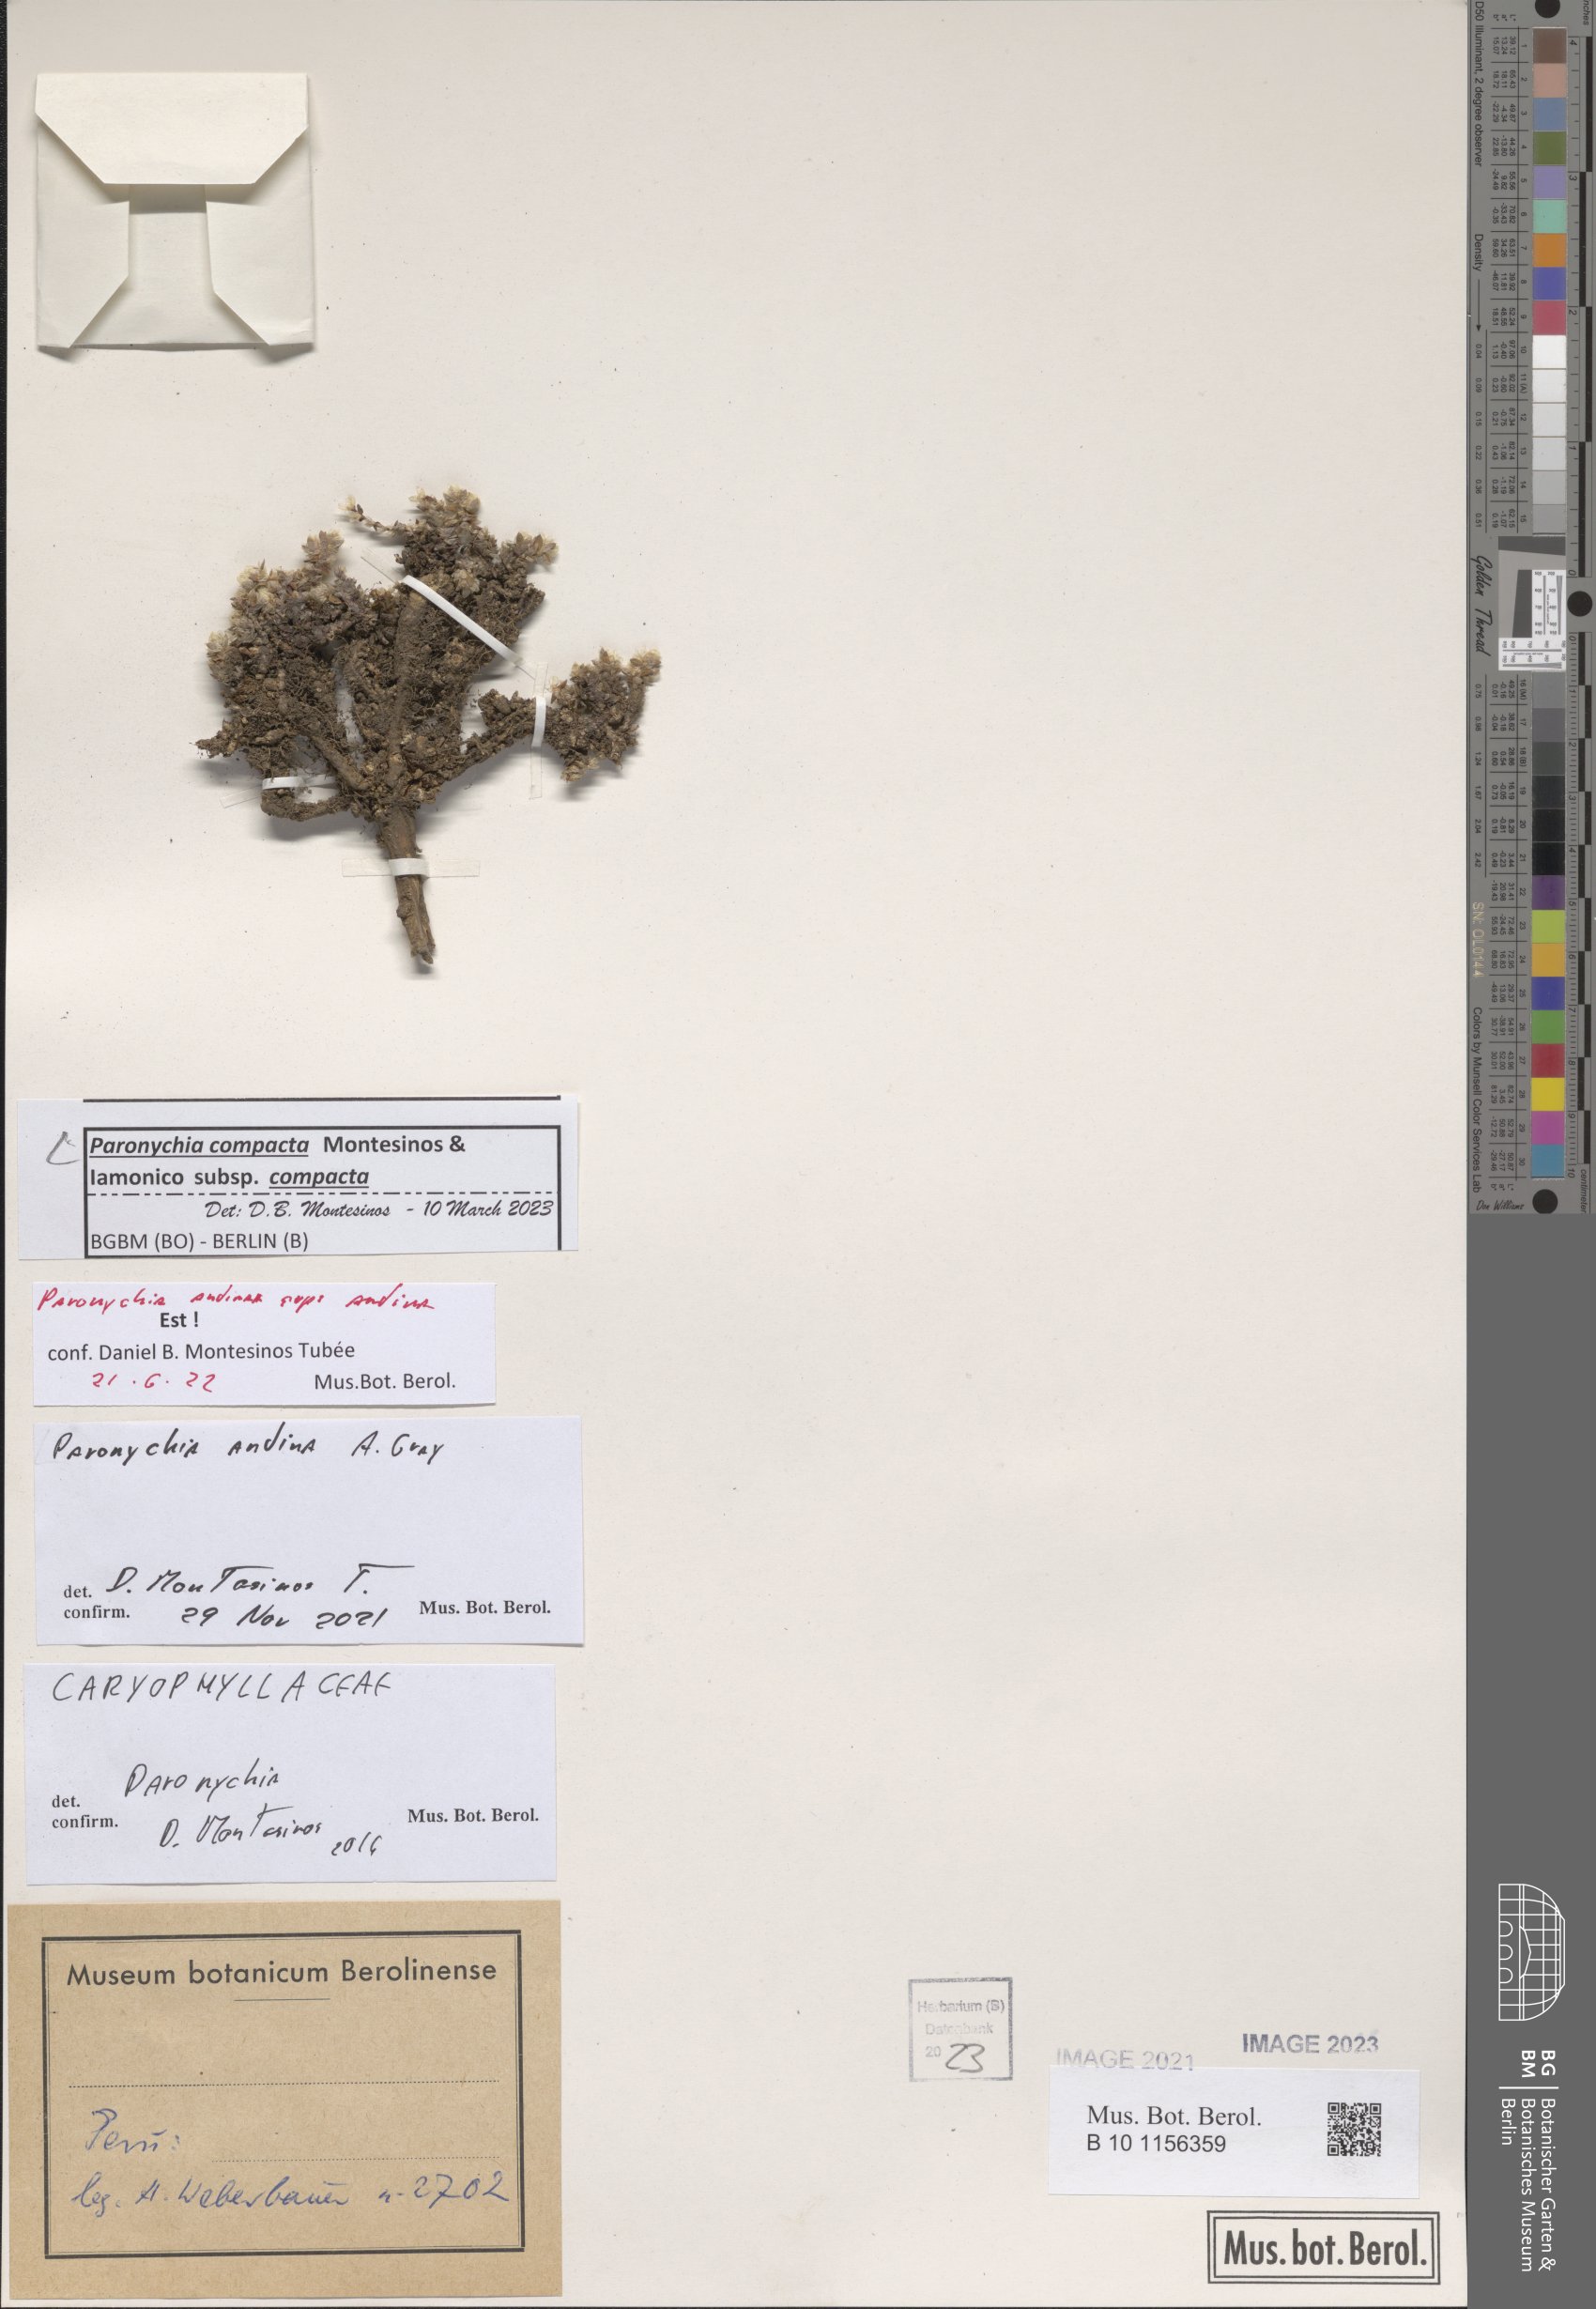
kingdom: Plantae
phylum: Tracheophyta
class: Magnoliopsida
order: Caryophyllales
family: Caryophyllaceae
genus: Paronychia
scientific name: Paronychia
